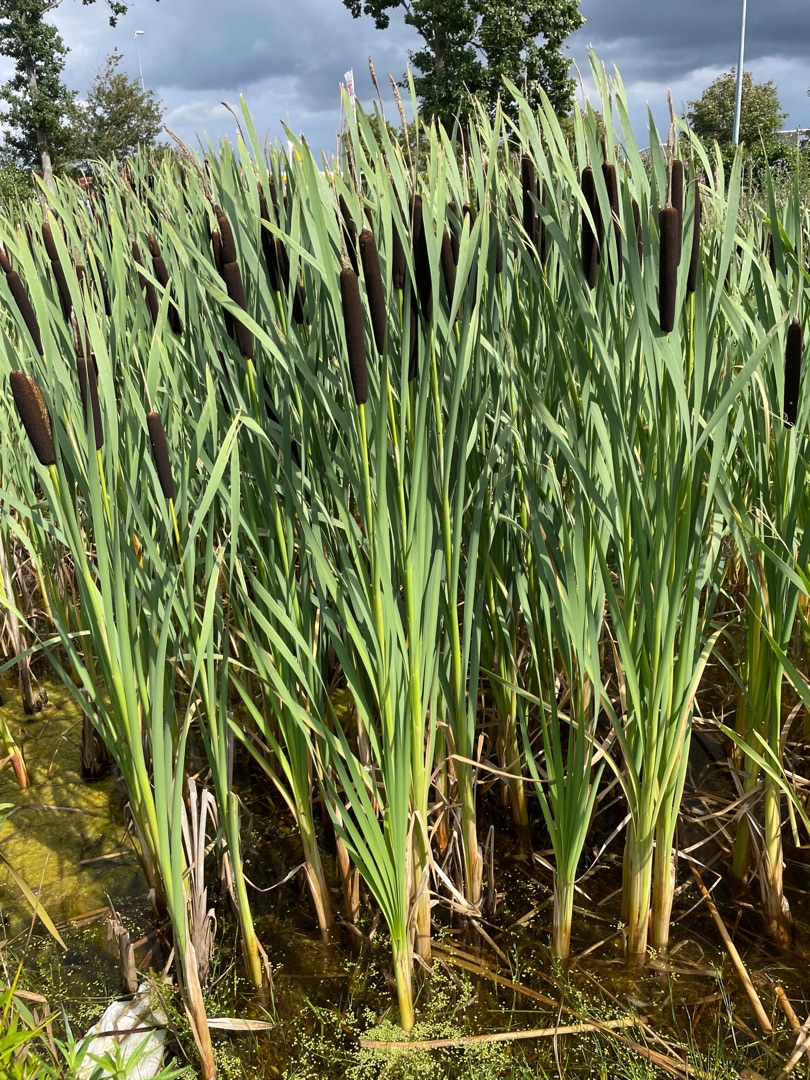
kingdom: Plantae
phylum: Tracheophyta
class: Liliopsida
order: Poales
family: Typhaceae
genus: Typha
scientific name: Typha latifolia
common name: Bredbladet dunhammer
